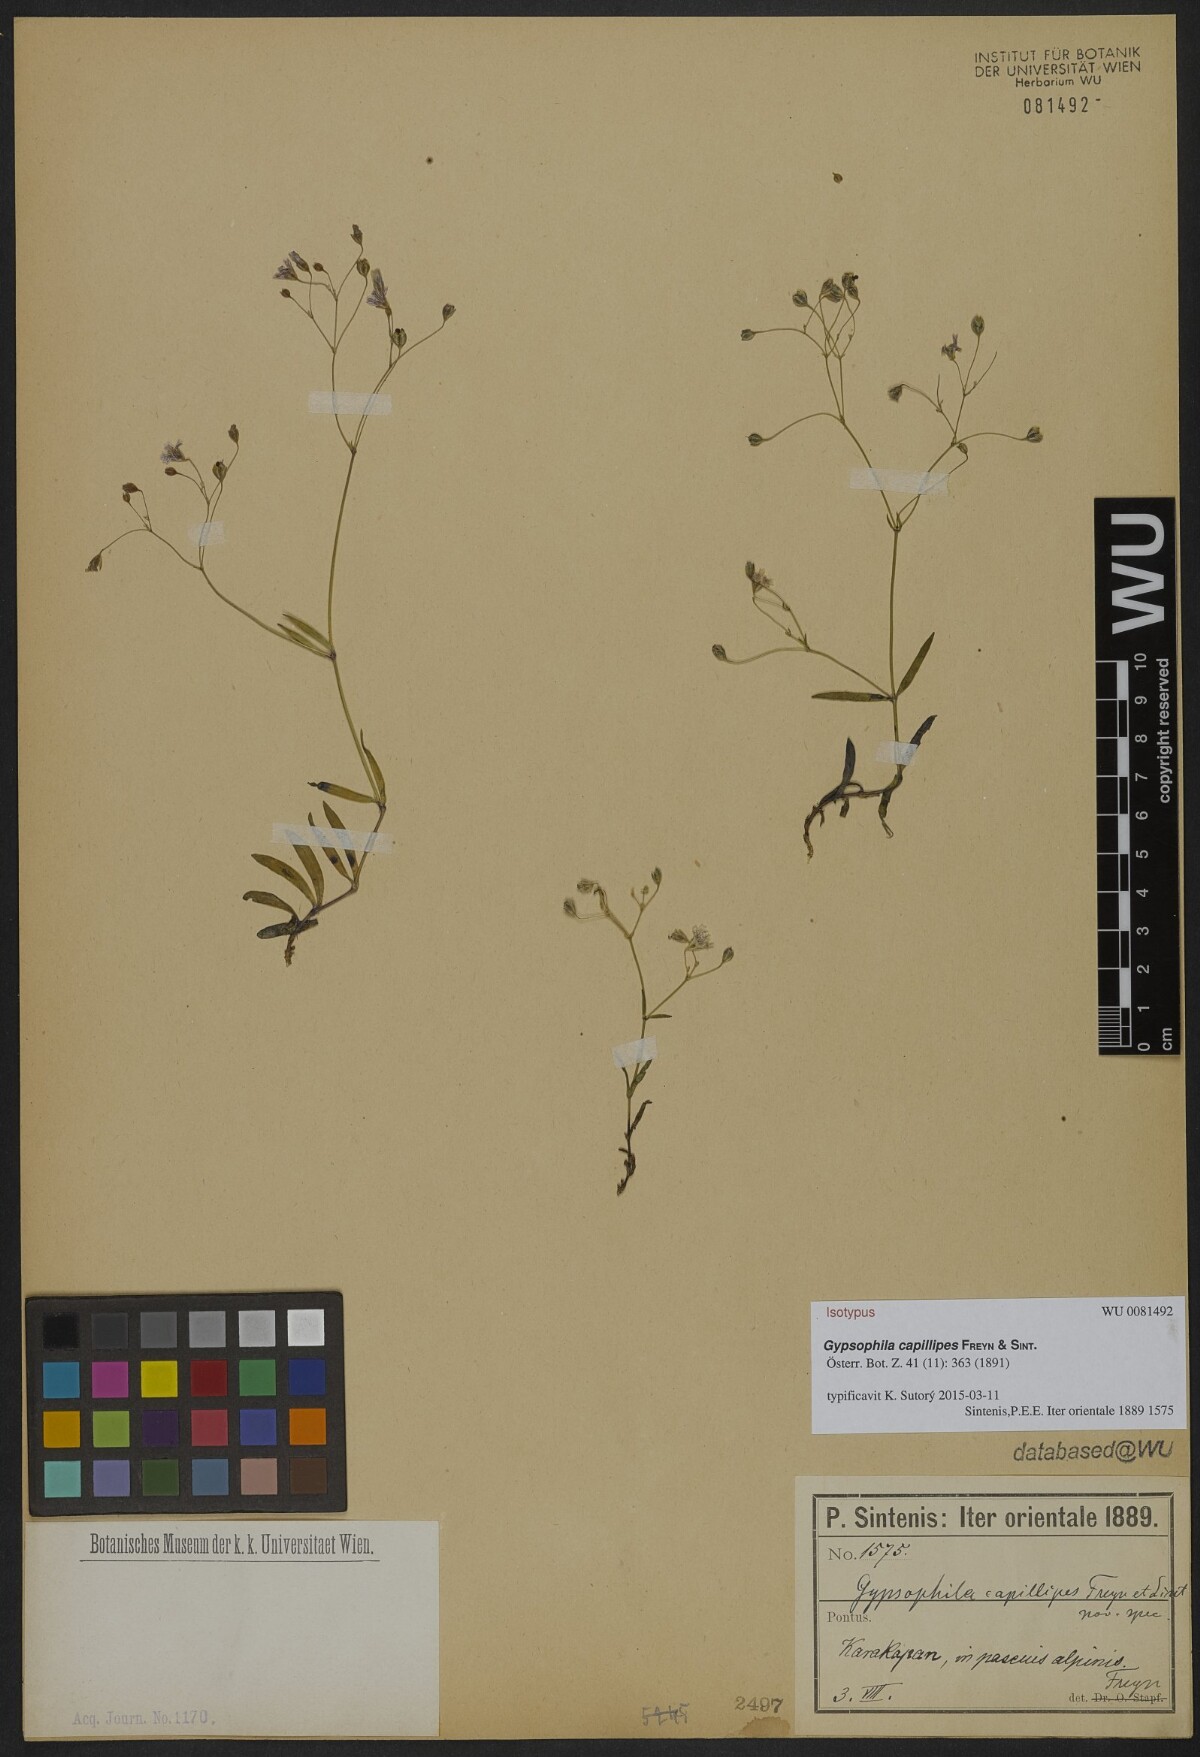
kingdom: Plantae
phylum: Tracheophyta
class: Magnoliopsida
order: Caryophyllales
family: Caryophyllaceae
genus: Gypsophila
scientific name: Gypsophila silenoides
